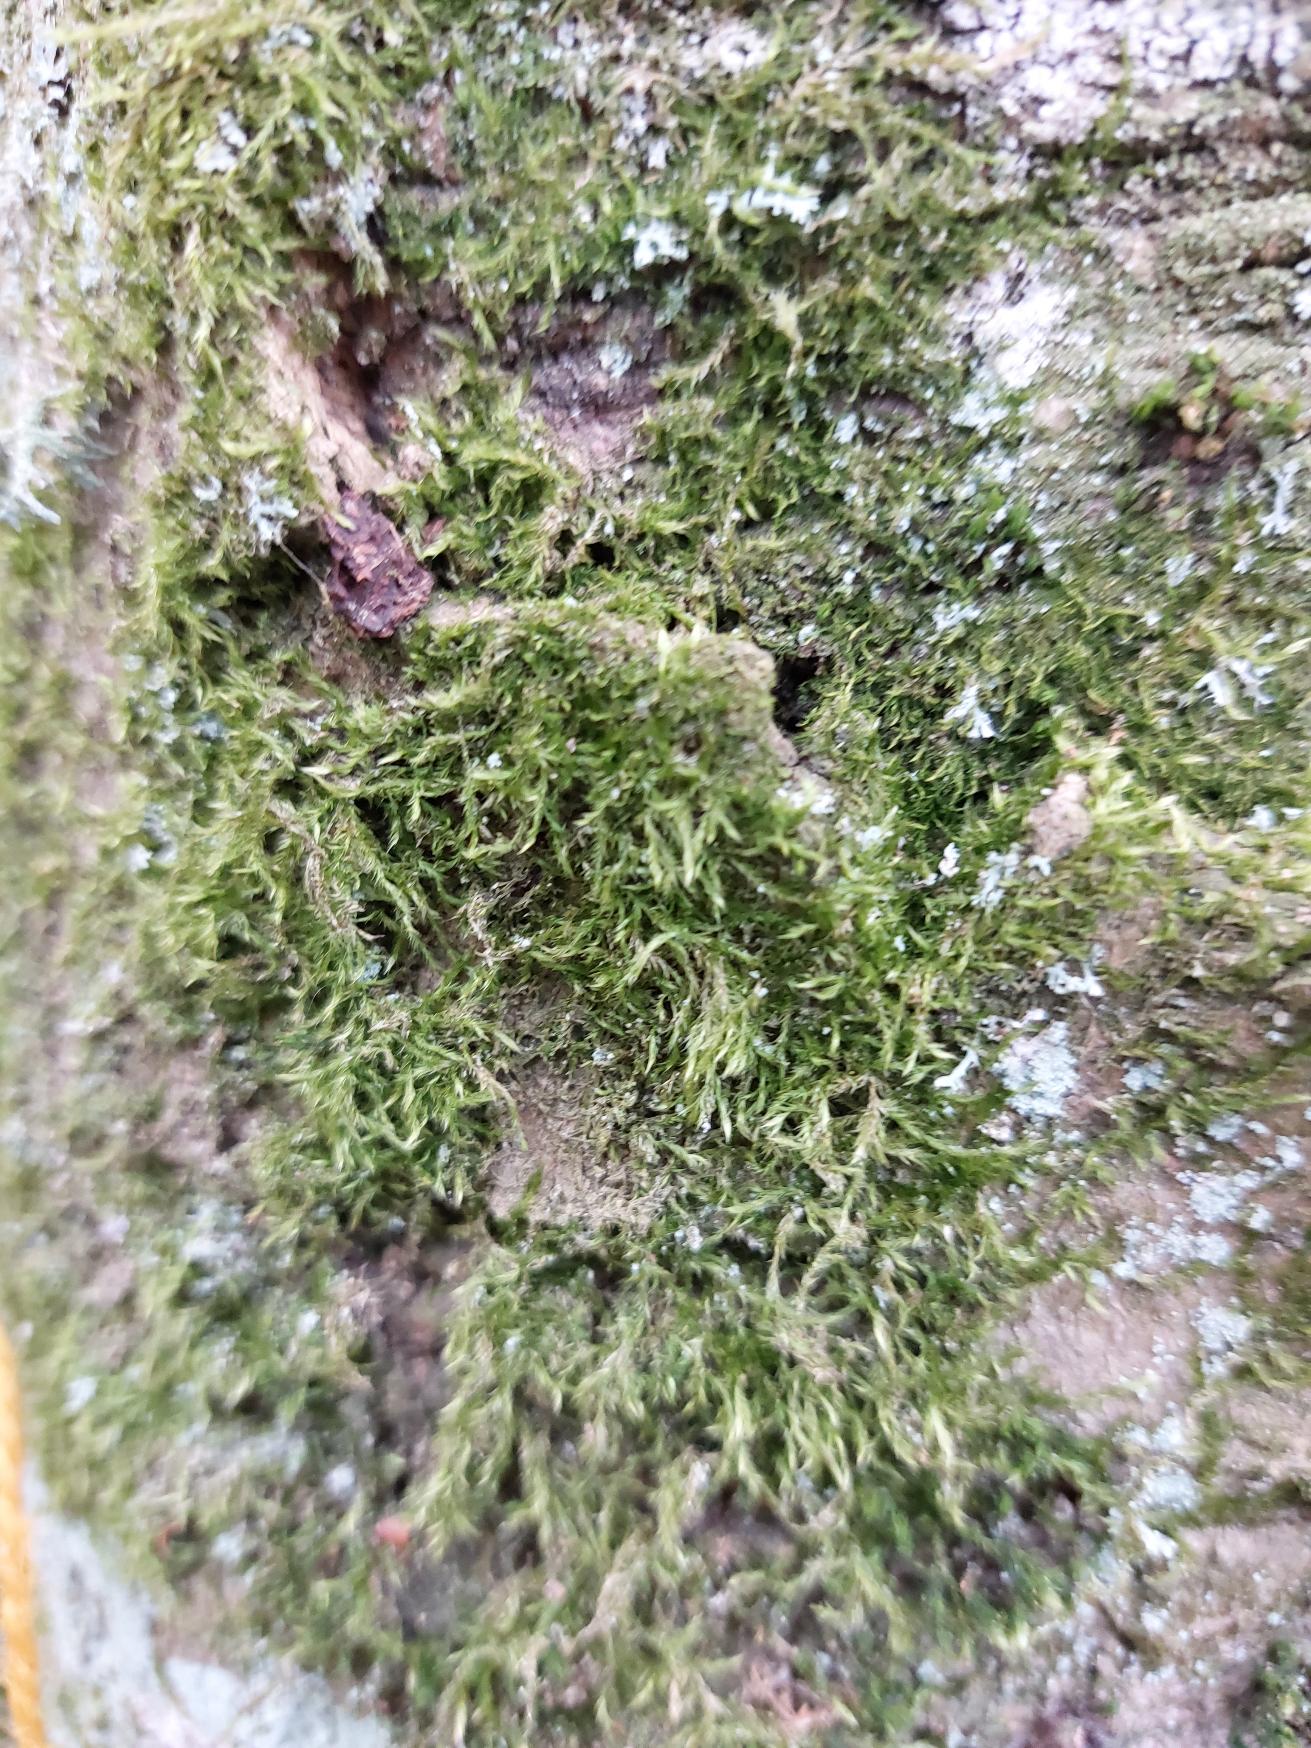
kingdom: Plantae
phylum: Bryophyta
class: Bryopsida
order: Hypnales
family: Hypnaceae
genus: Hypnum
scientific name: Hypnum
